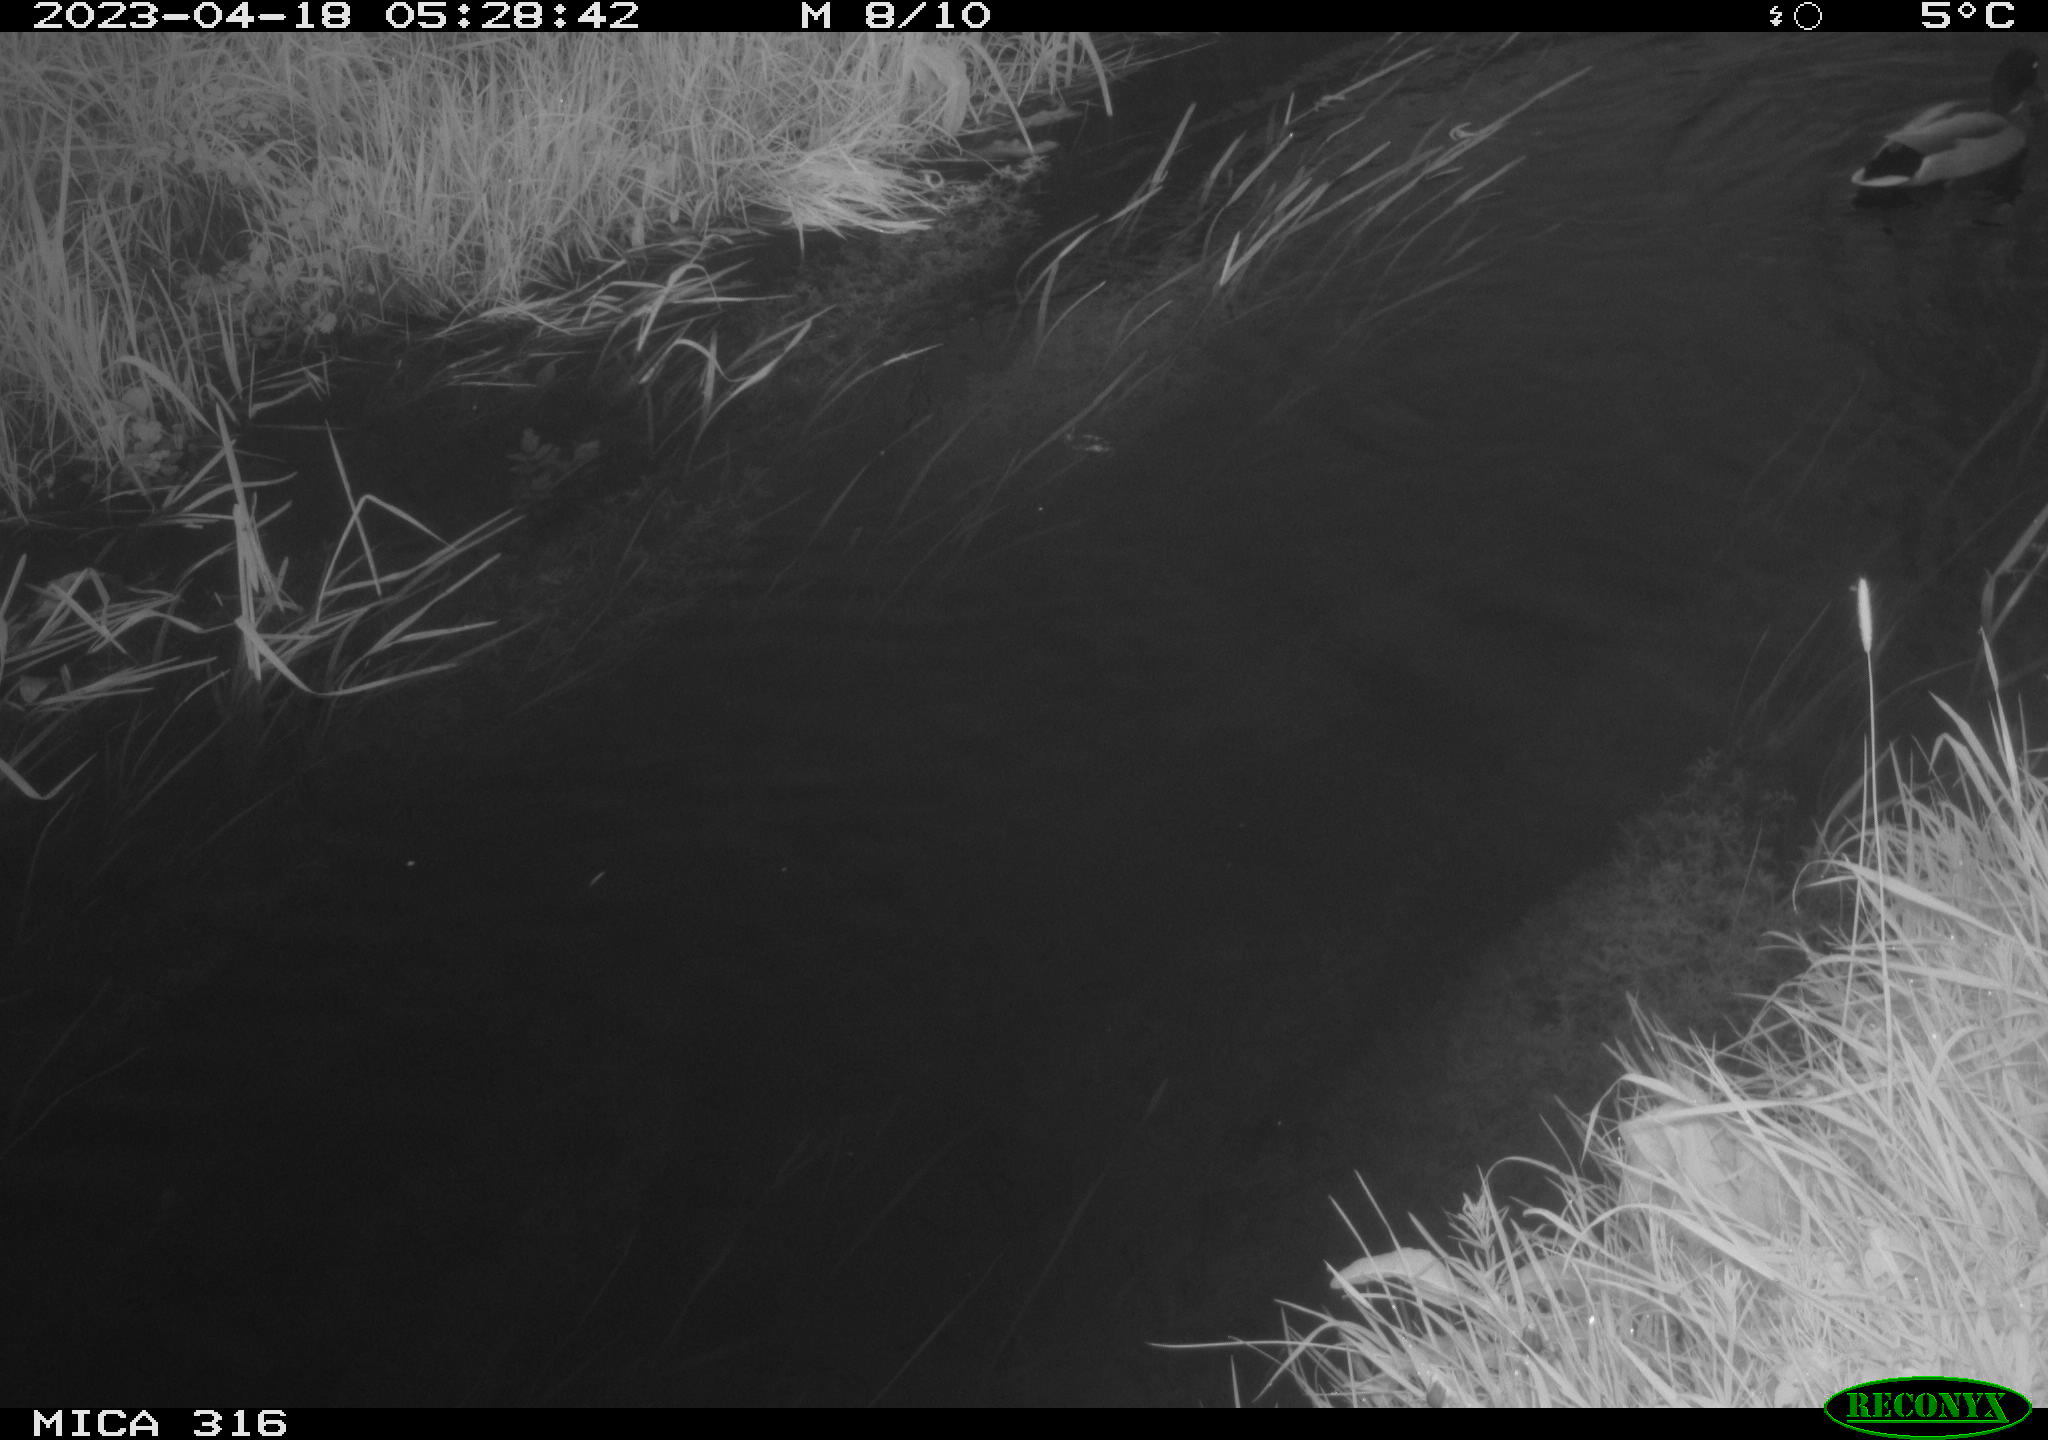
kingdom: Animalia
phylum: Chordata
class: Aves
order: Anseriformes
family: Anatidae
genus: Anas
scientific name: Anas
